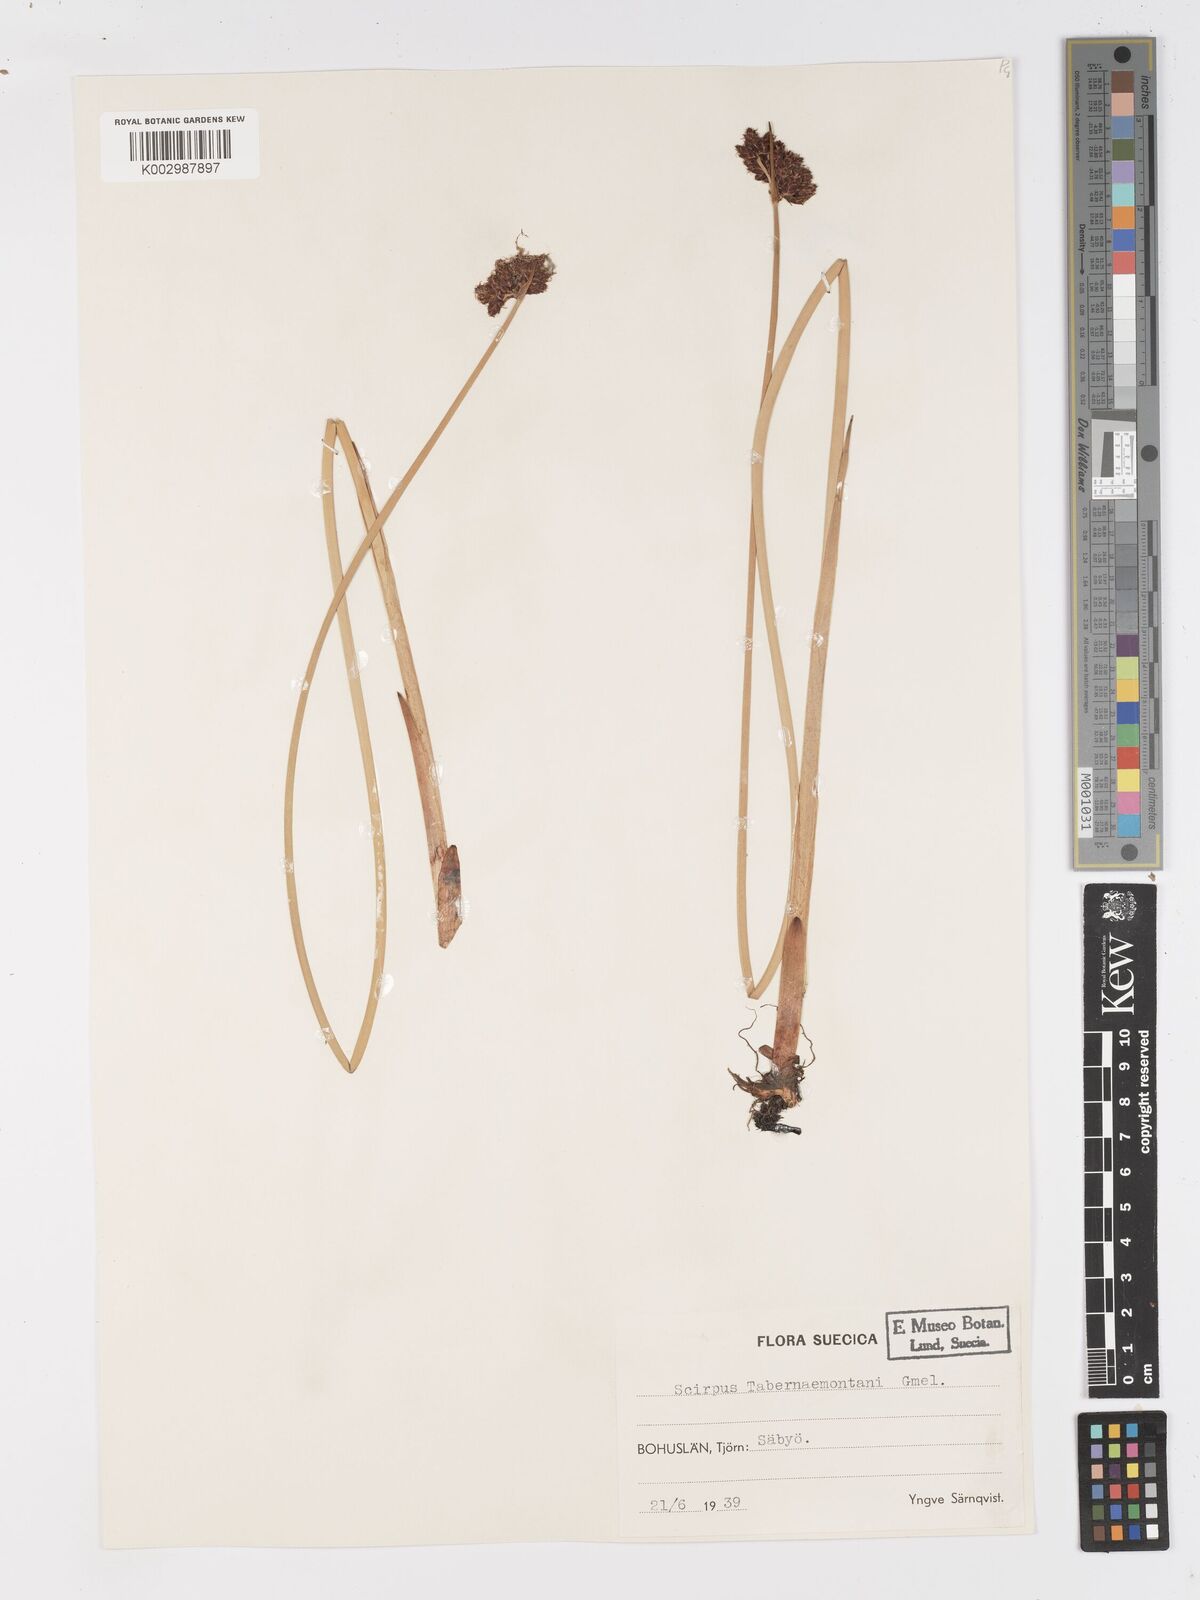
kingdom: Plantae
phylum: Tracheophyta
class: Liliopsida
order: Poales
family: Cyperaceae
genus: Schoenoplectus
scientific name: Schoenoplectus tabernaemontani
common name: Grey club-rush
